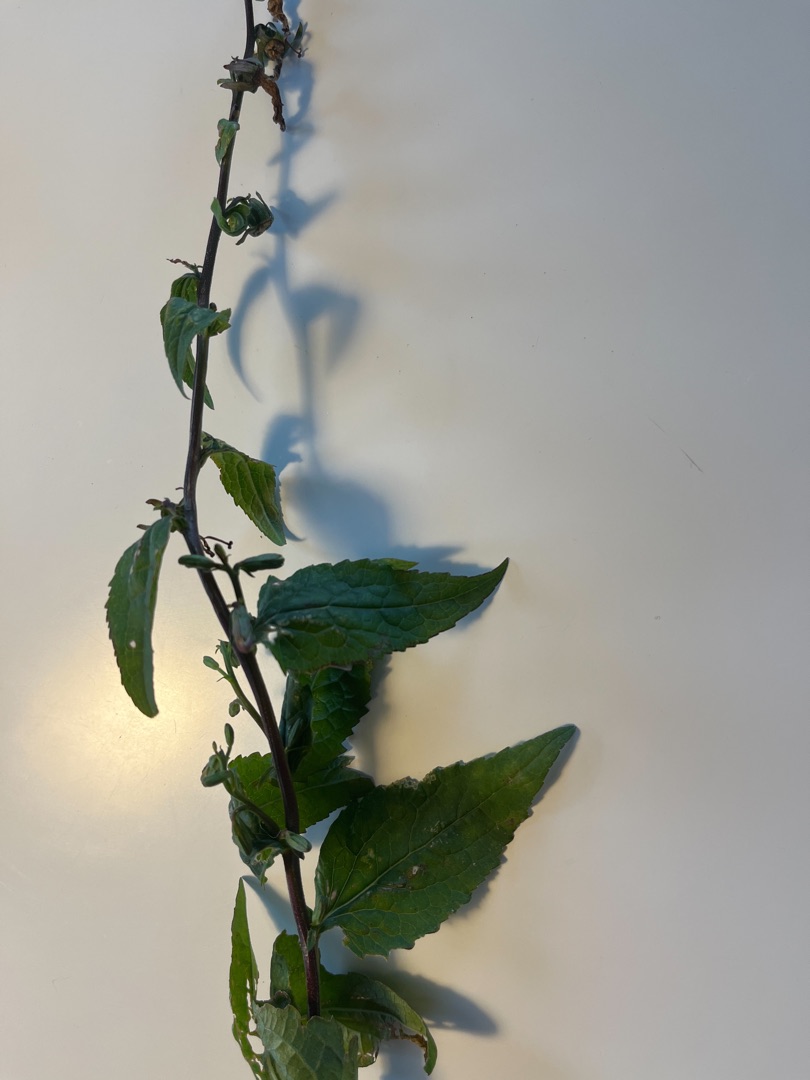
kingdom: Plantae
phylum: Tracheophyta
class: Magnoliopsida
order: Asterales
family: Campanulaceae
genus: Campanula
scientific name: Campanula
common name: Klokkeslægten
